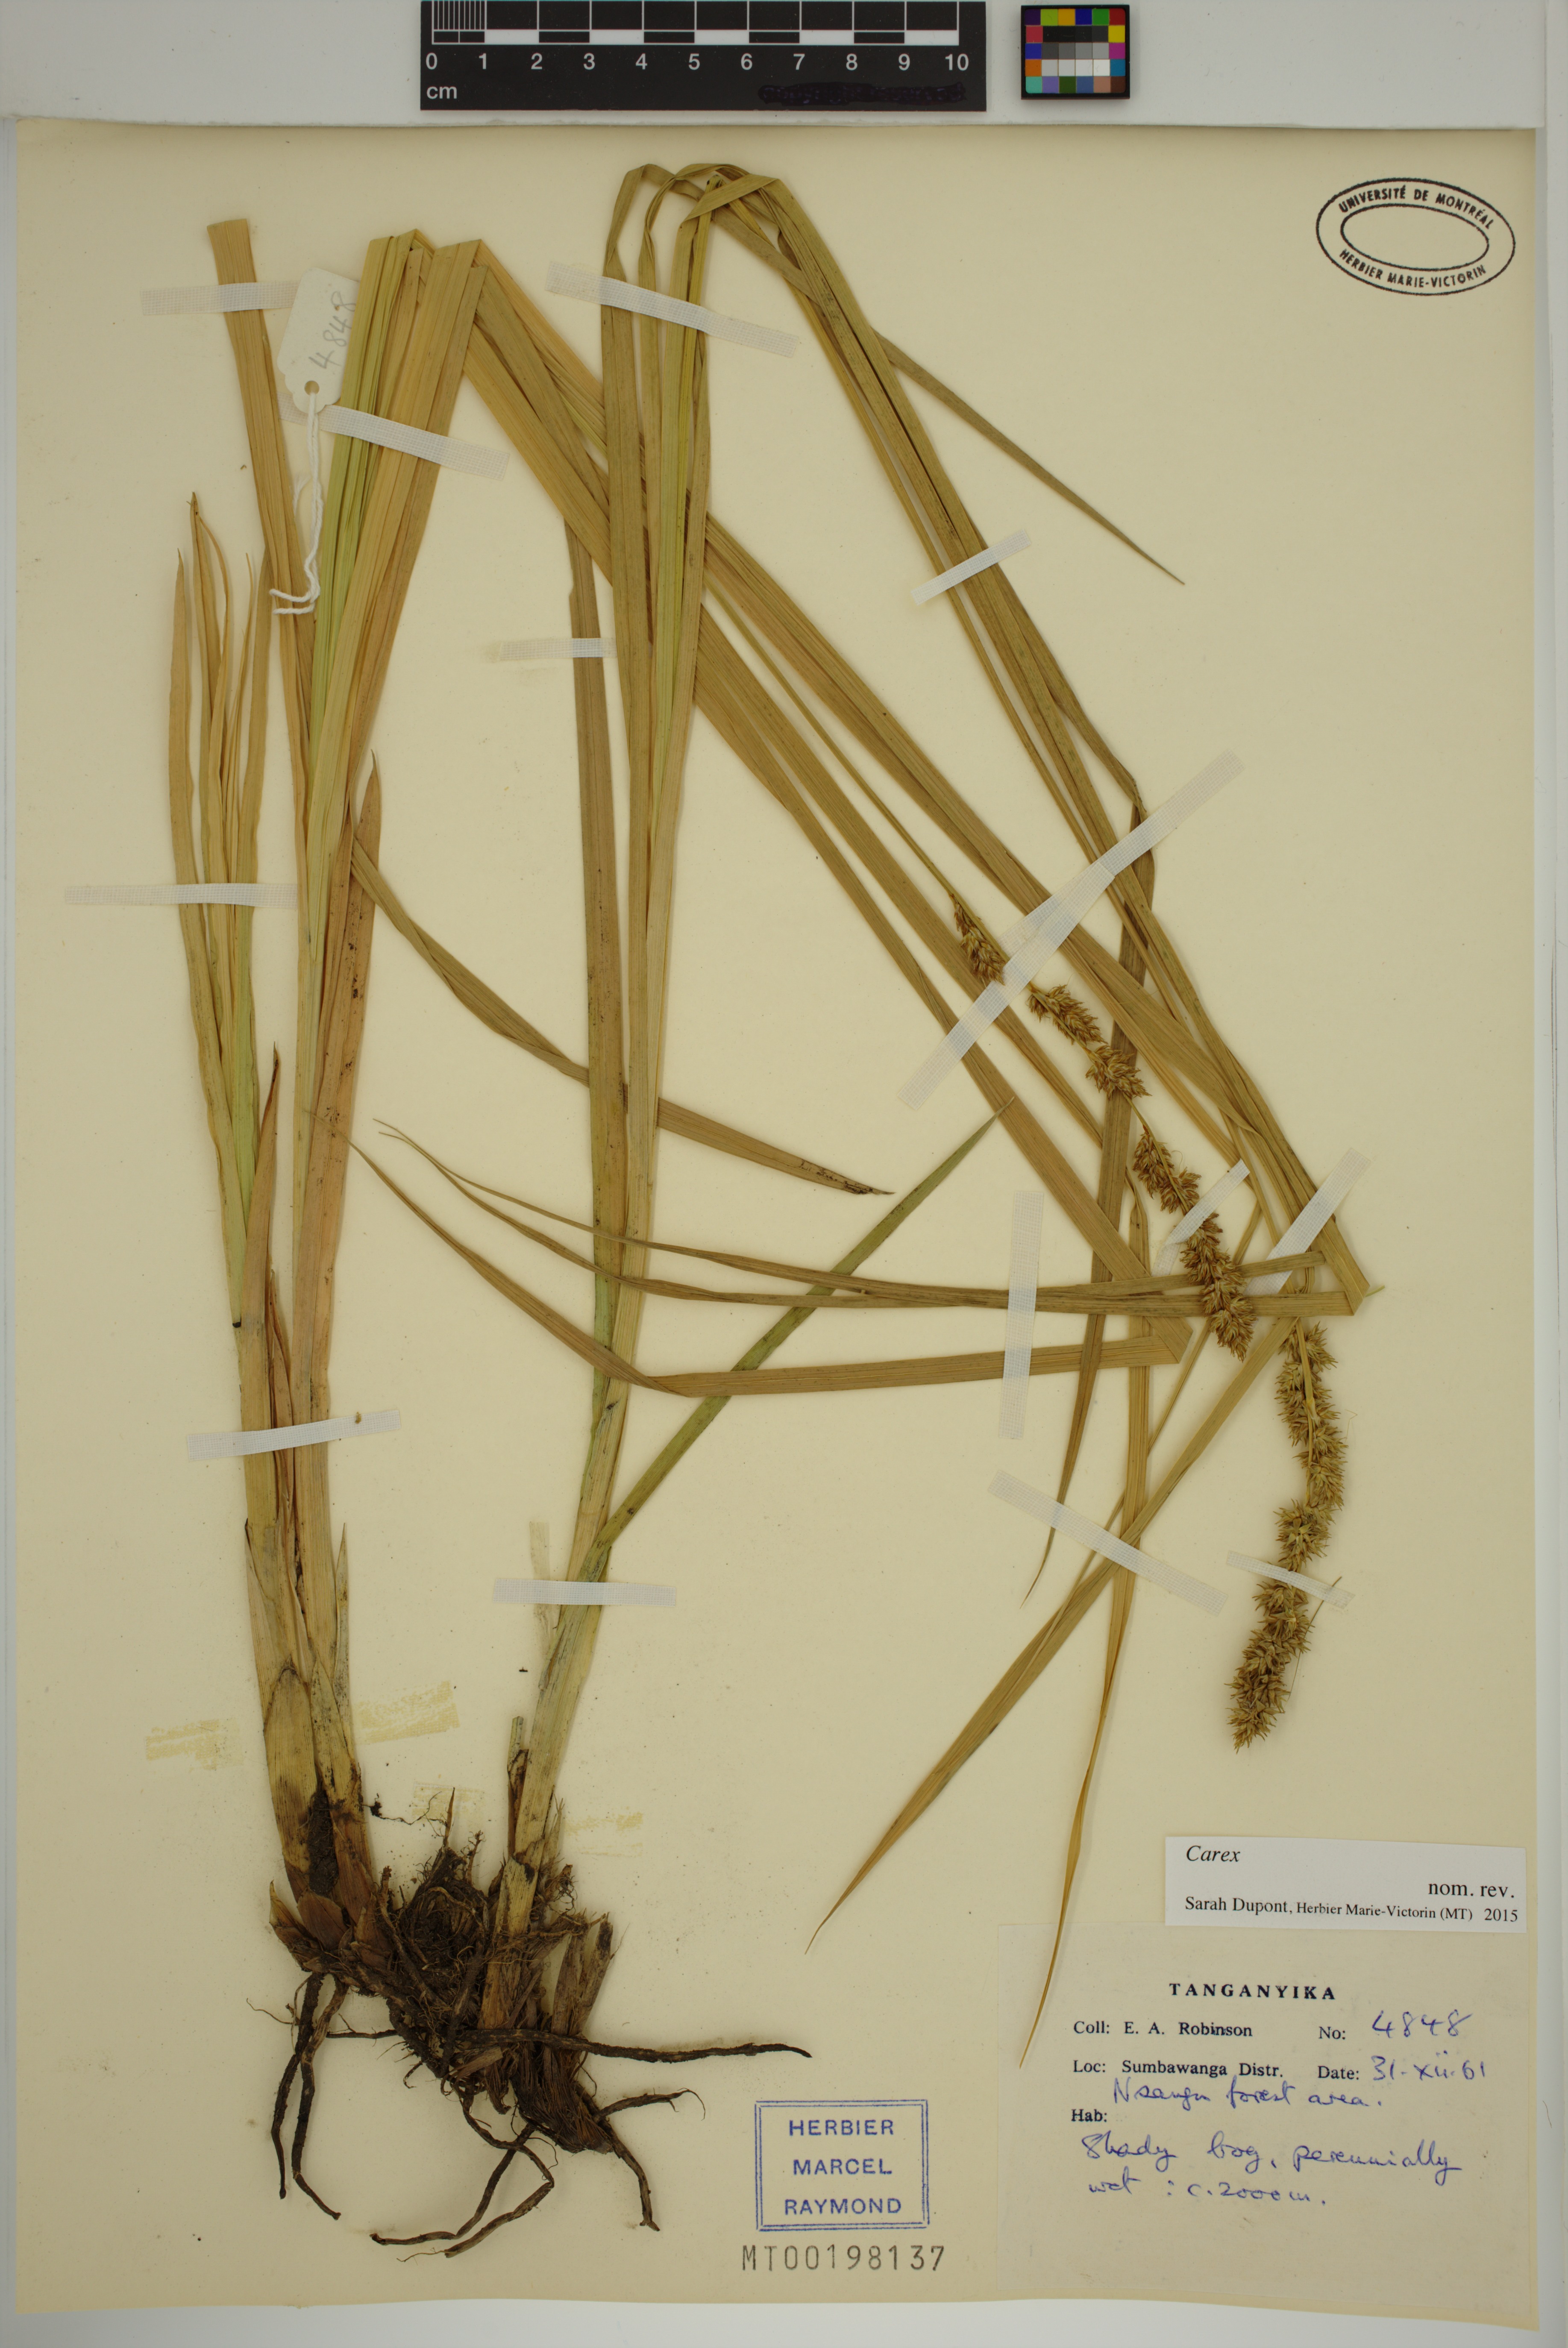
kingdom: Plantae
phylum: Tracheophyta
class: Liliopsida
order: Poales
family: Cyperaceae
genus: Carex
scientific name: Carex
